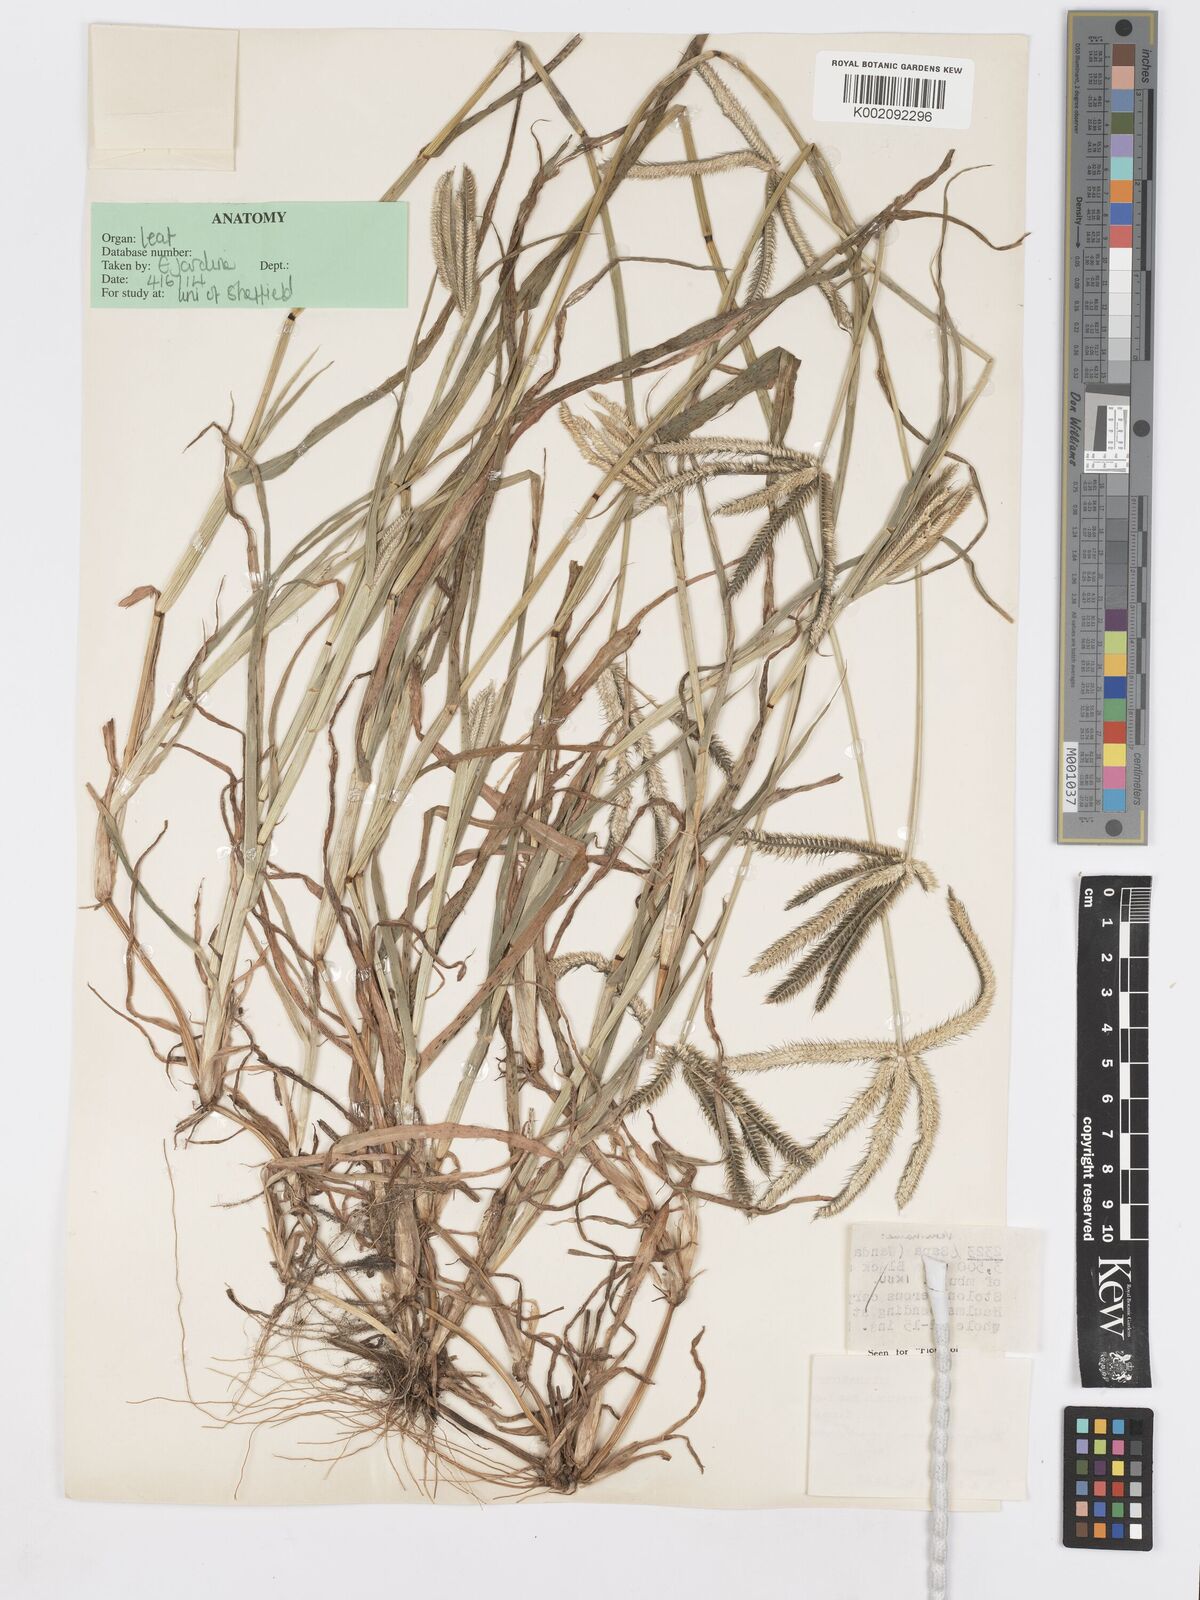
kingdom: Plantae
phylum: Tracheophyta
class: Liliopsida
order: Poales
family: Poaceae
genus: Dactyloctenium
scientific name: Dactyloctenium aegyptium
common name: Egyptian grass
